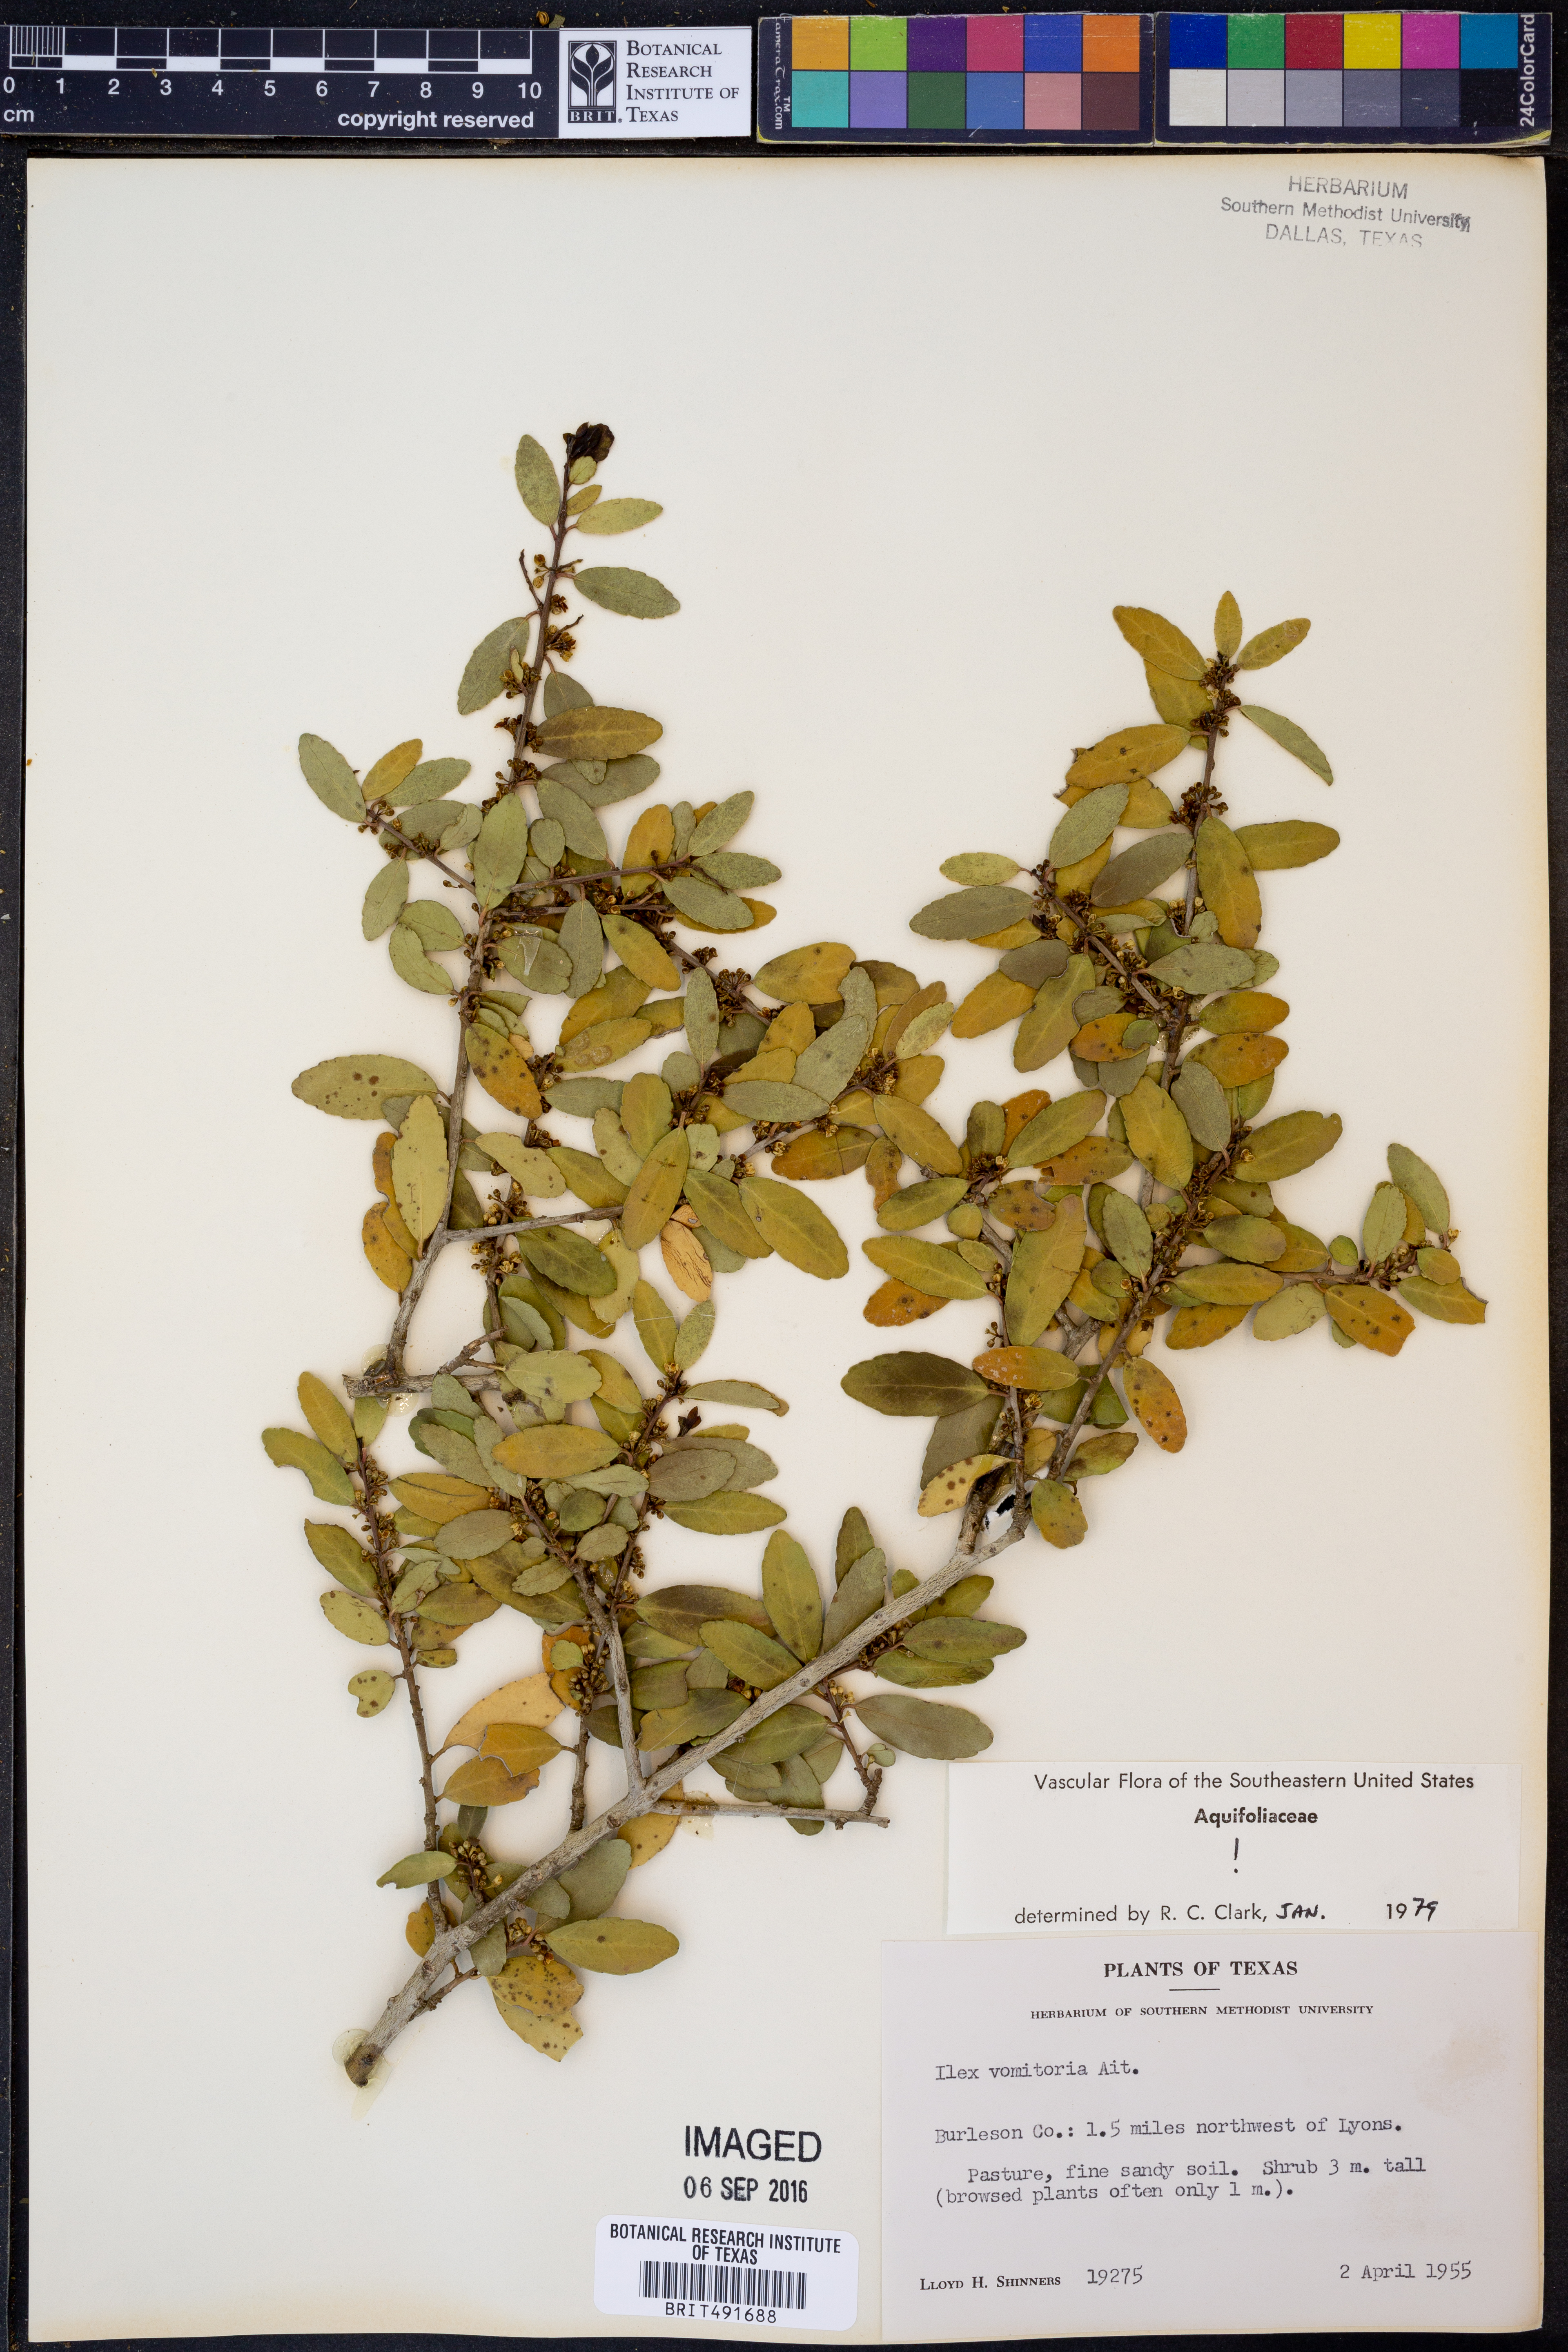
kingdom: Plantae
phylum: Tracheophyta
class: Magnoliopsida
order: Aquifoliales
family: Aquifoliaceae
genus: Ilex
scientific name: Ilex vomitoria
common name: Yaupon holly
